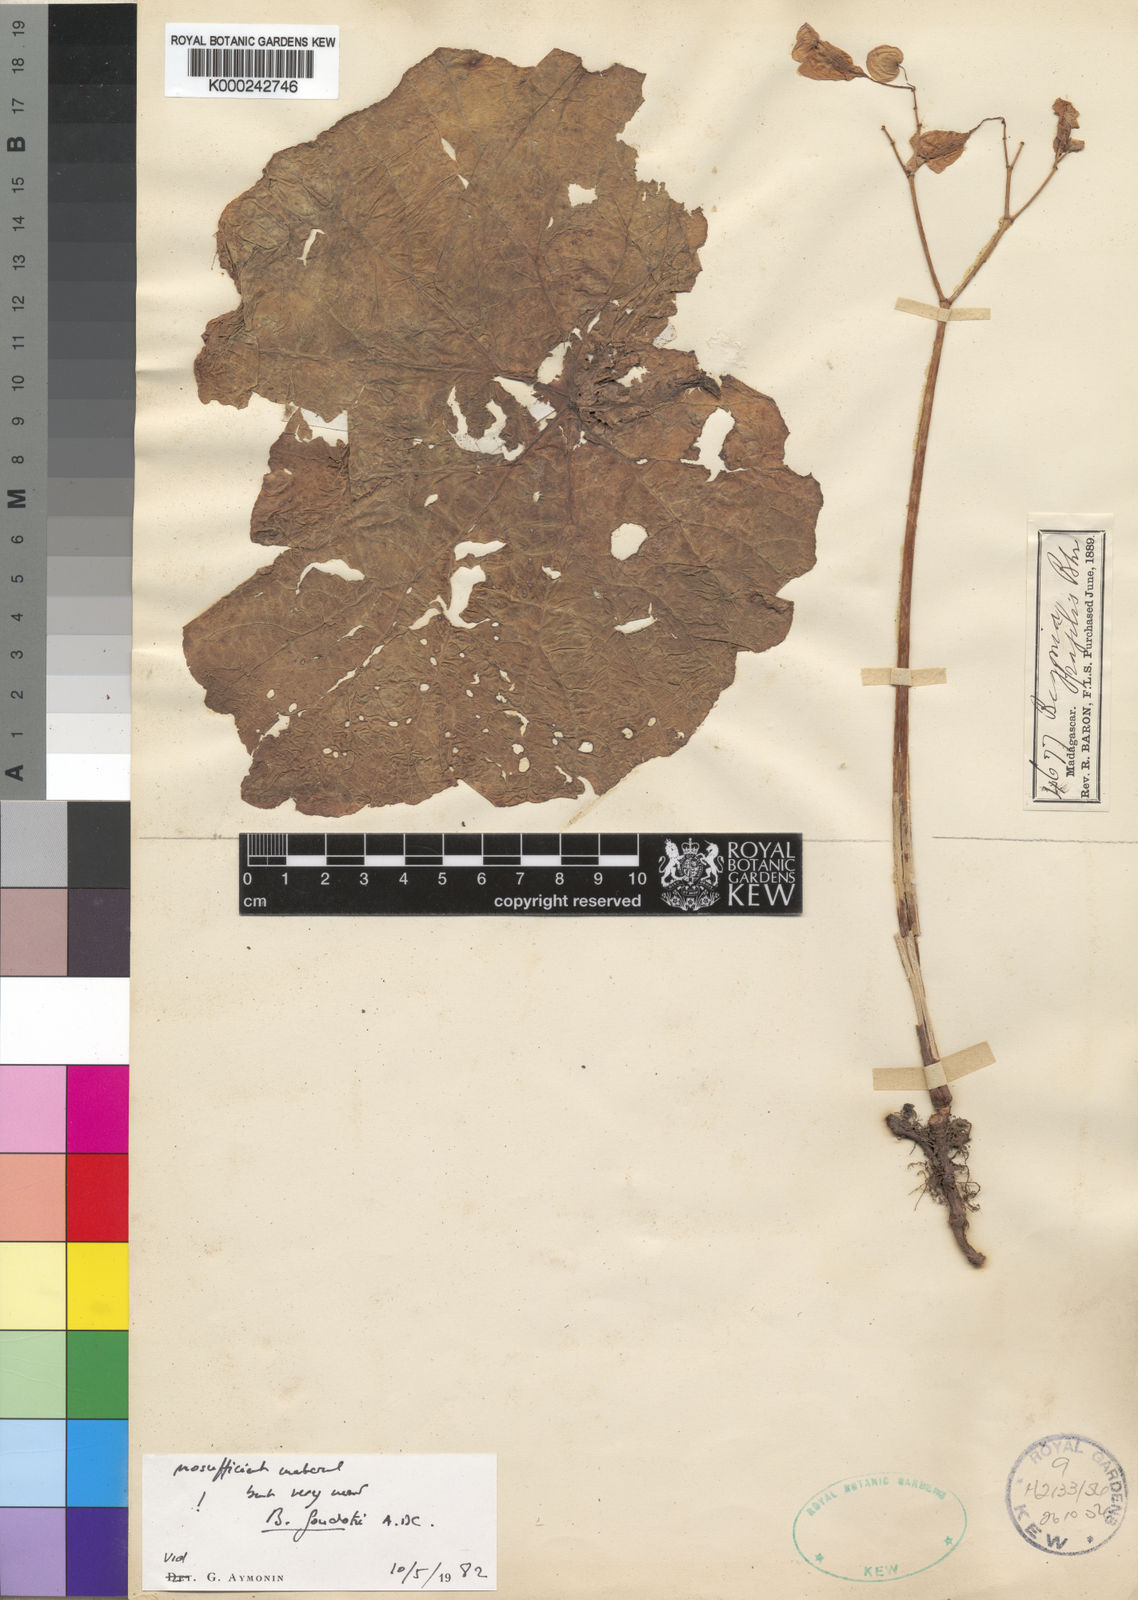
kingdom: Plantae
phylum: Tracheophyta
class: Magnoliopsida
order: Cucurbitales
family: Begoniaceae
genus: Begonia
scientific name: Begonia goudotii
